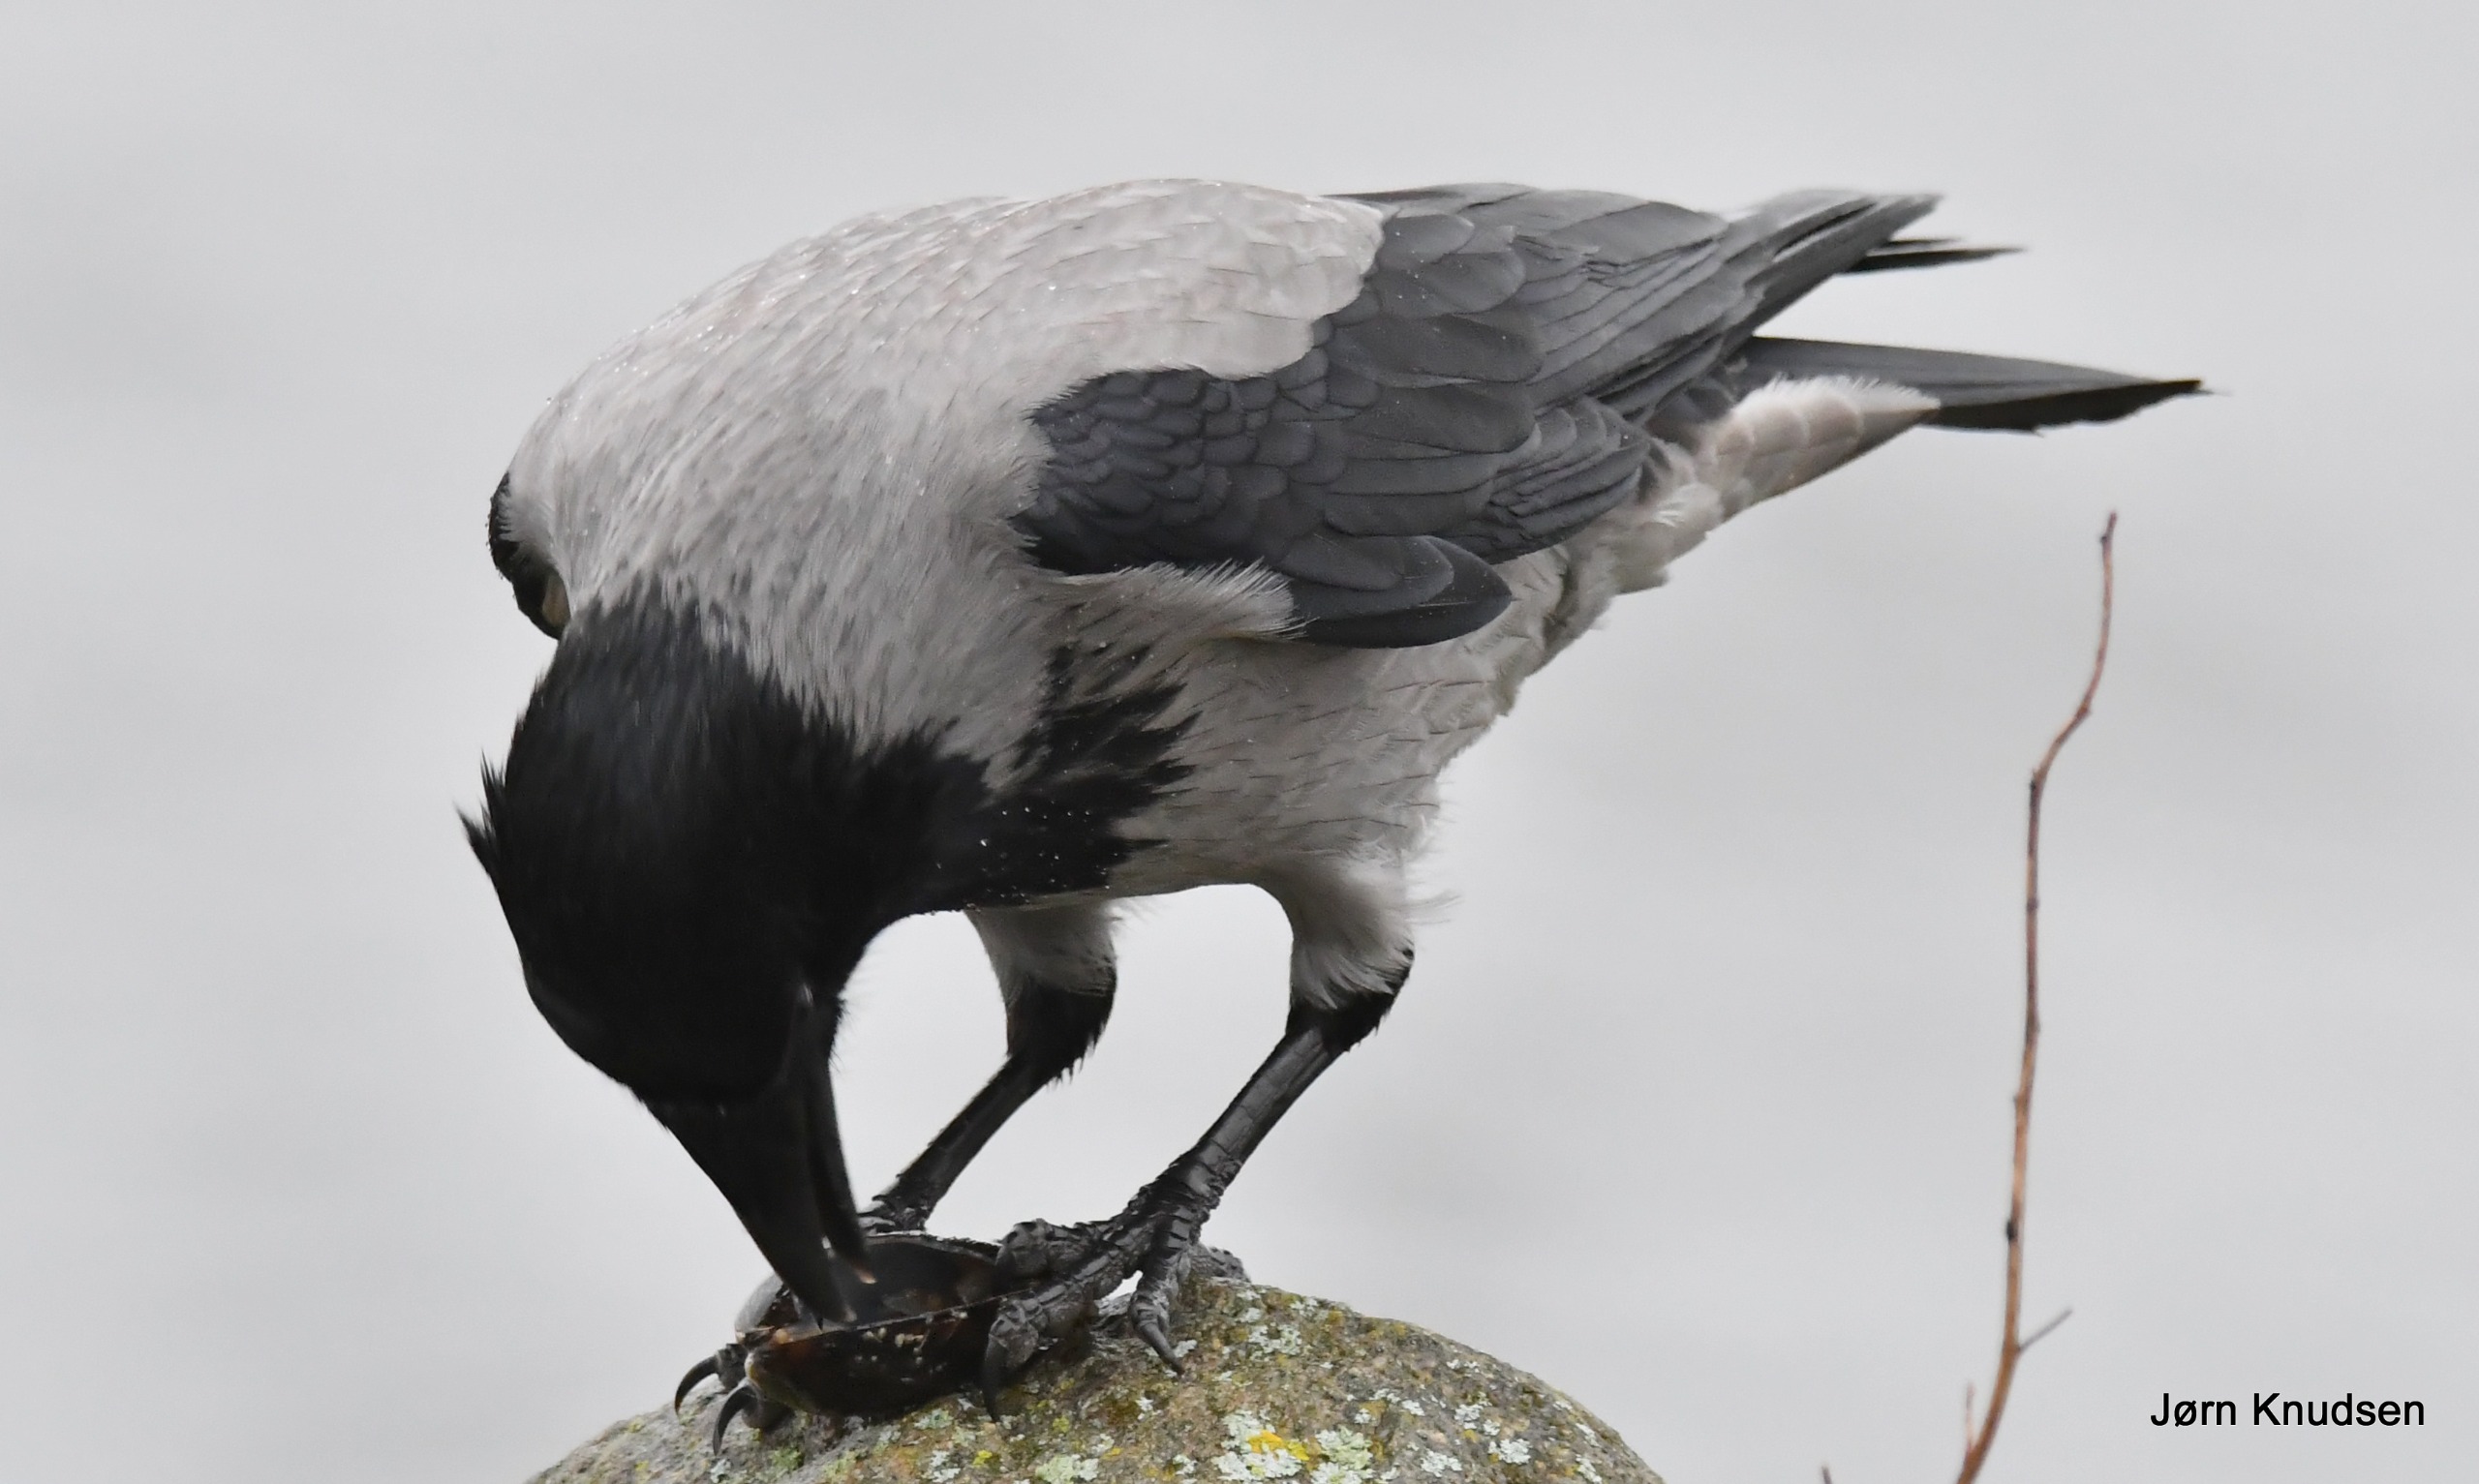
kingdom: Animalia
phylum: Chordata
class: Aves
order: Passeriformes
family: Corvidae
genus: Corvus
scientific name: Corvus cornix
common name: Gråkrage
